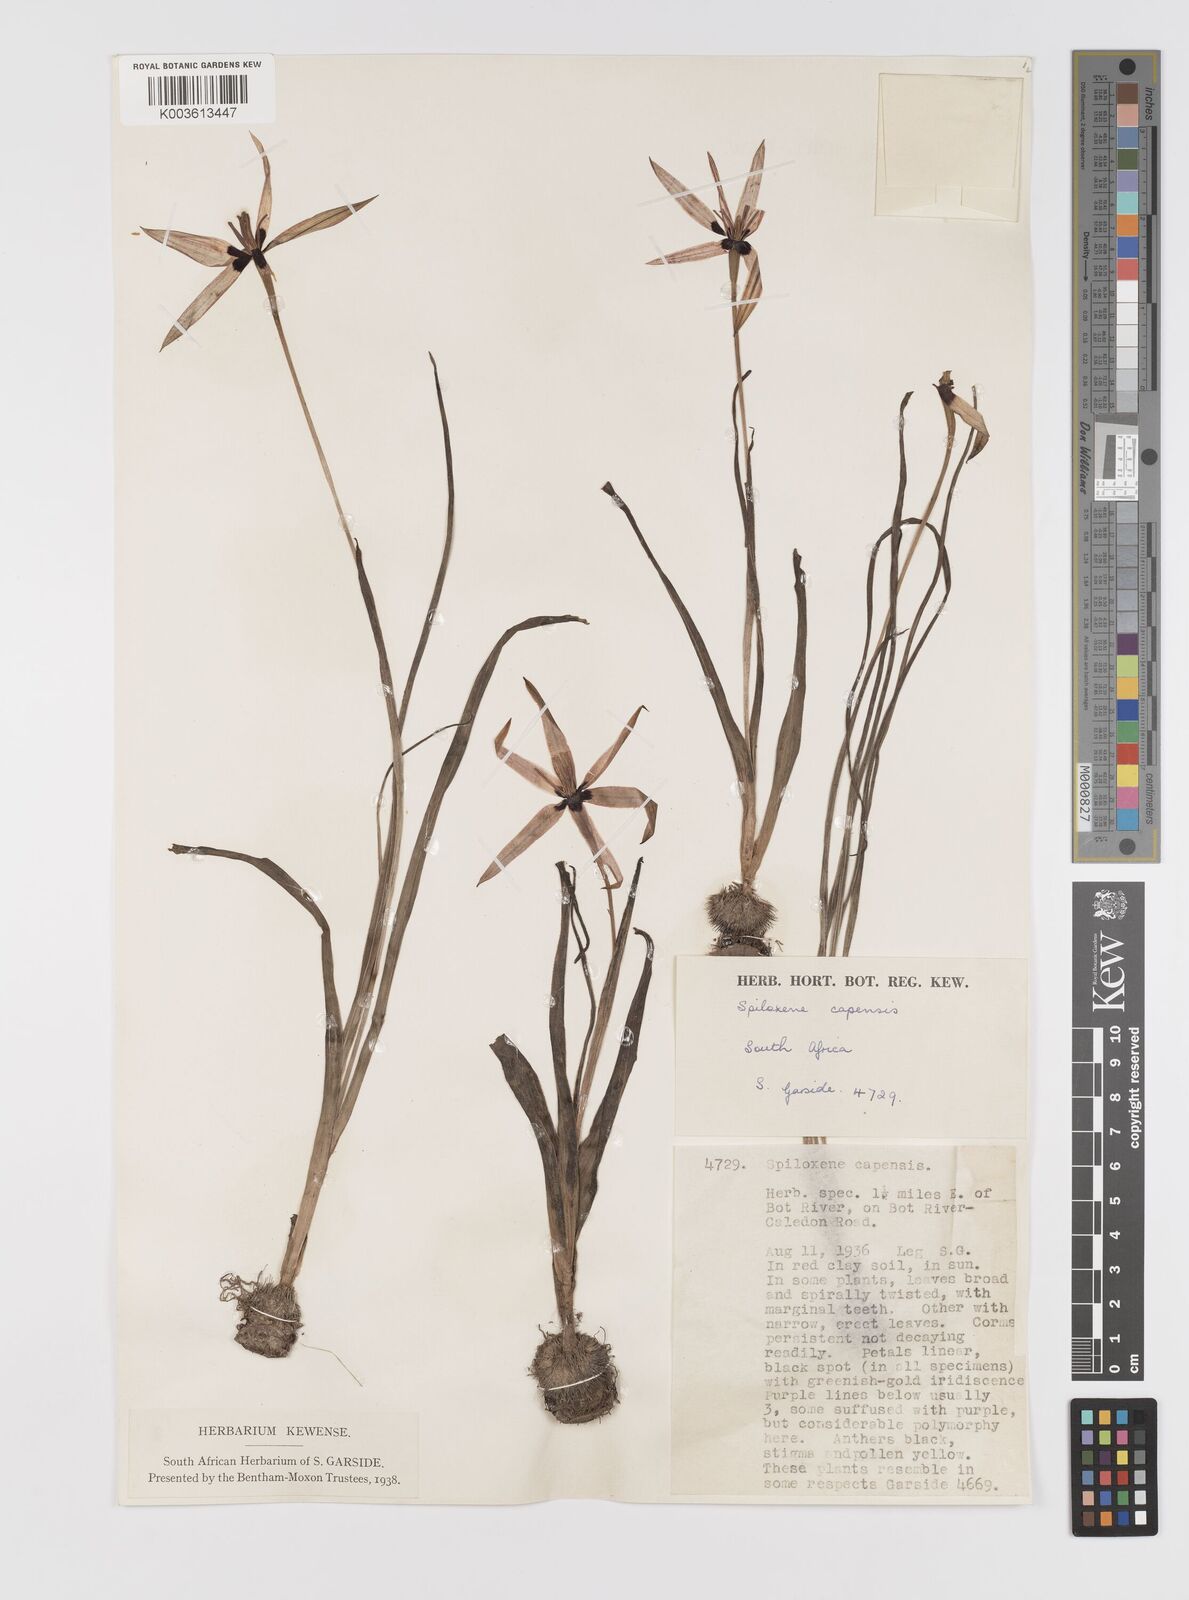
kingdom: Plantae
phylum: Tracheophyta
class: Liliopsida
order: Asparagales
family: Hypoxidaceae
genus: Pauridia
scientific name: Pauridia capensis
